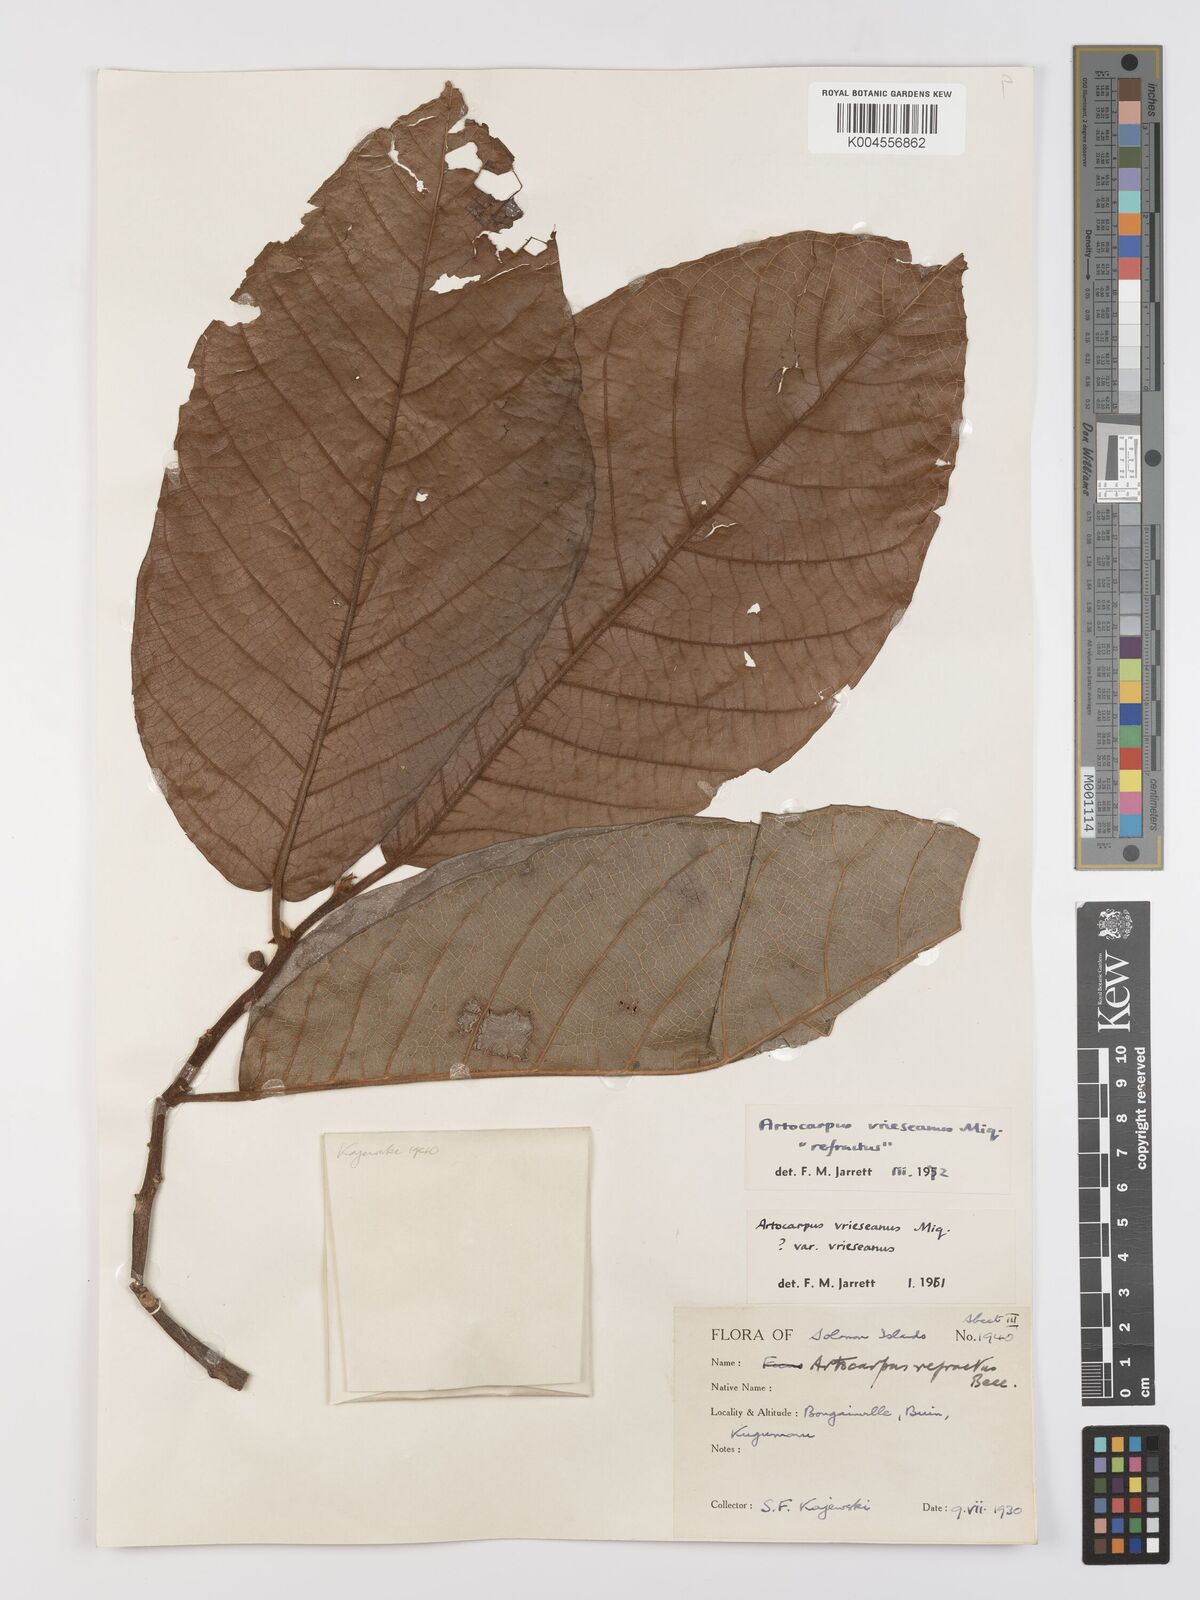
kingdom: Plantae
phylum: Tracheophyta
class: Magnoliopsida
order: Rosales
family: Moraceae
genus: Artocarpus
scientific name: Artocarpus vrieseanus
